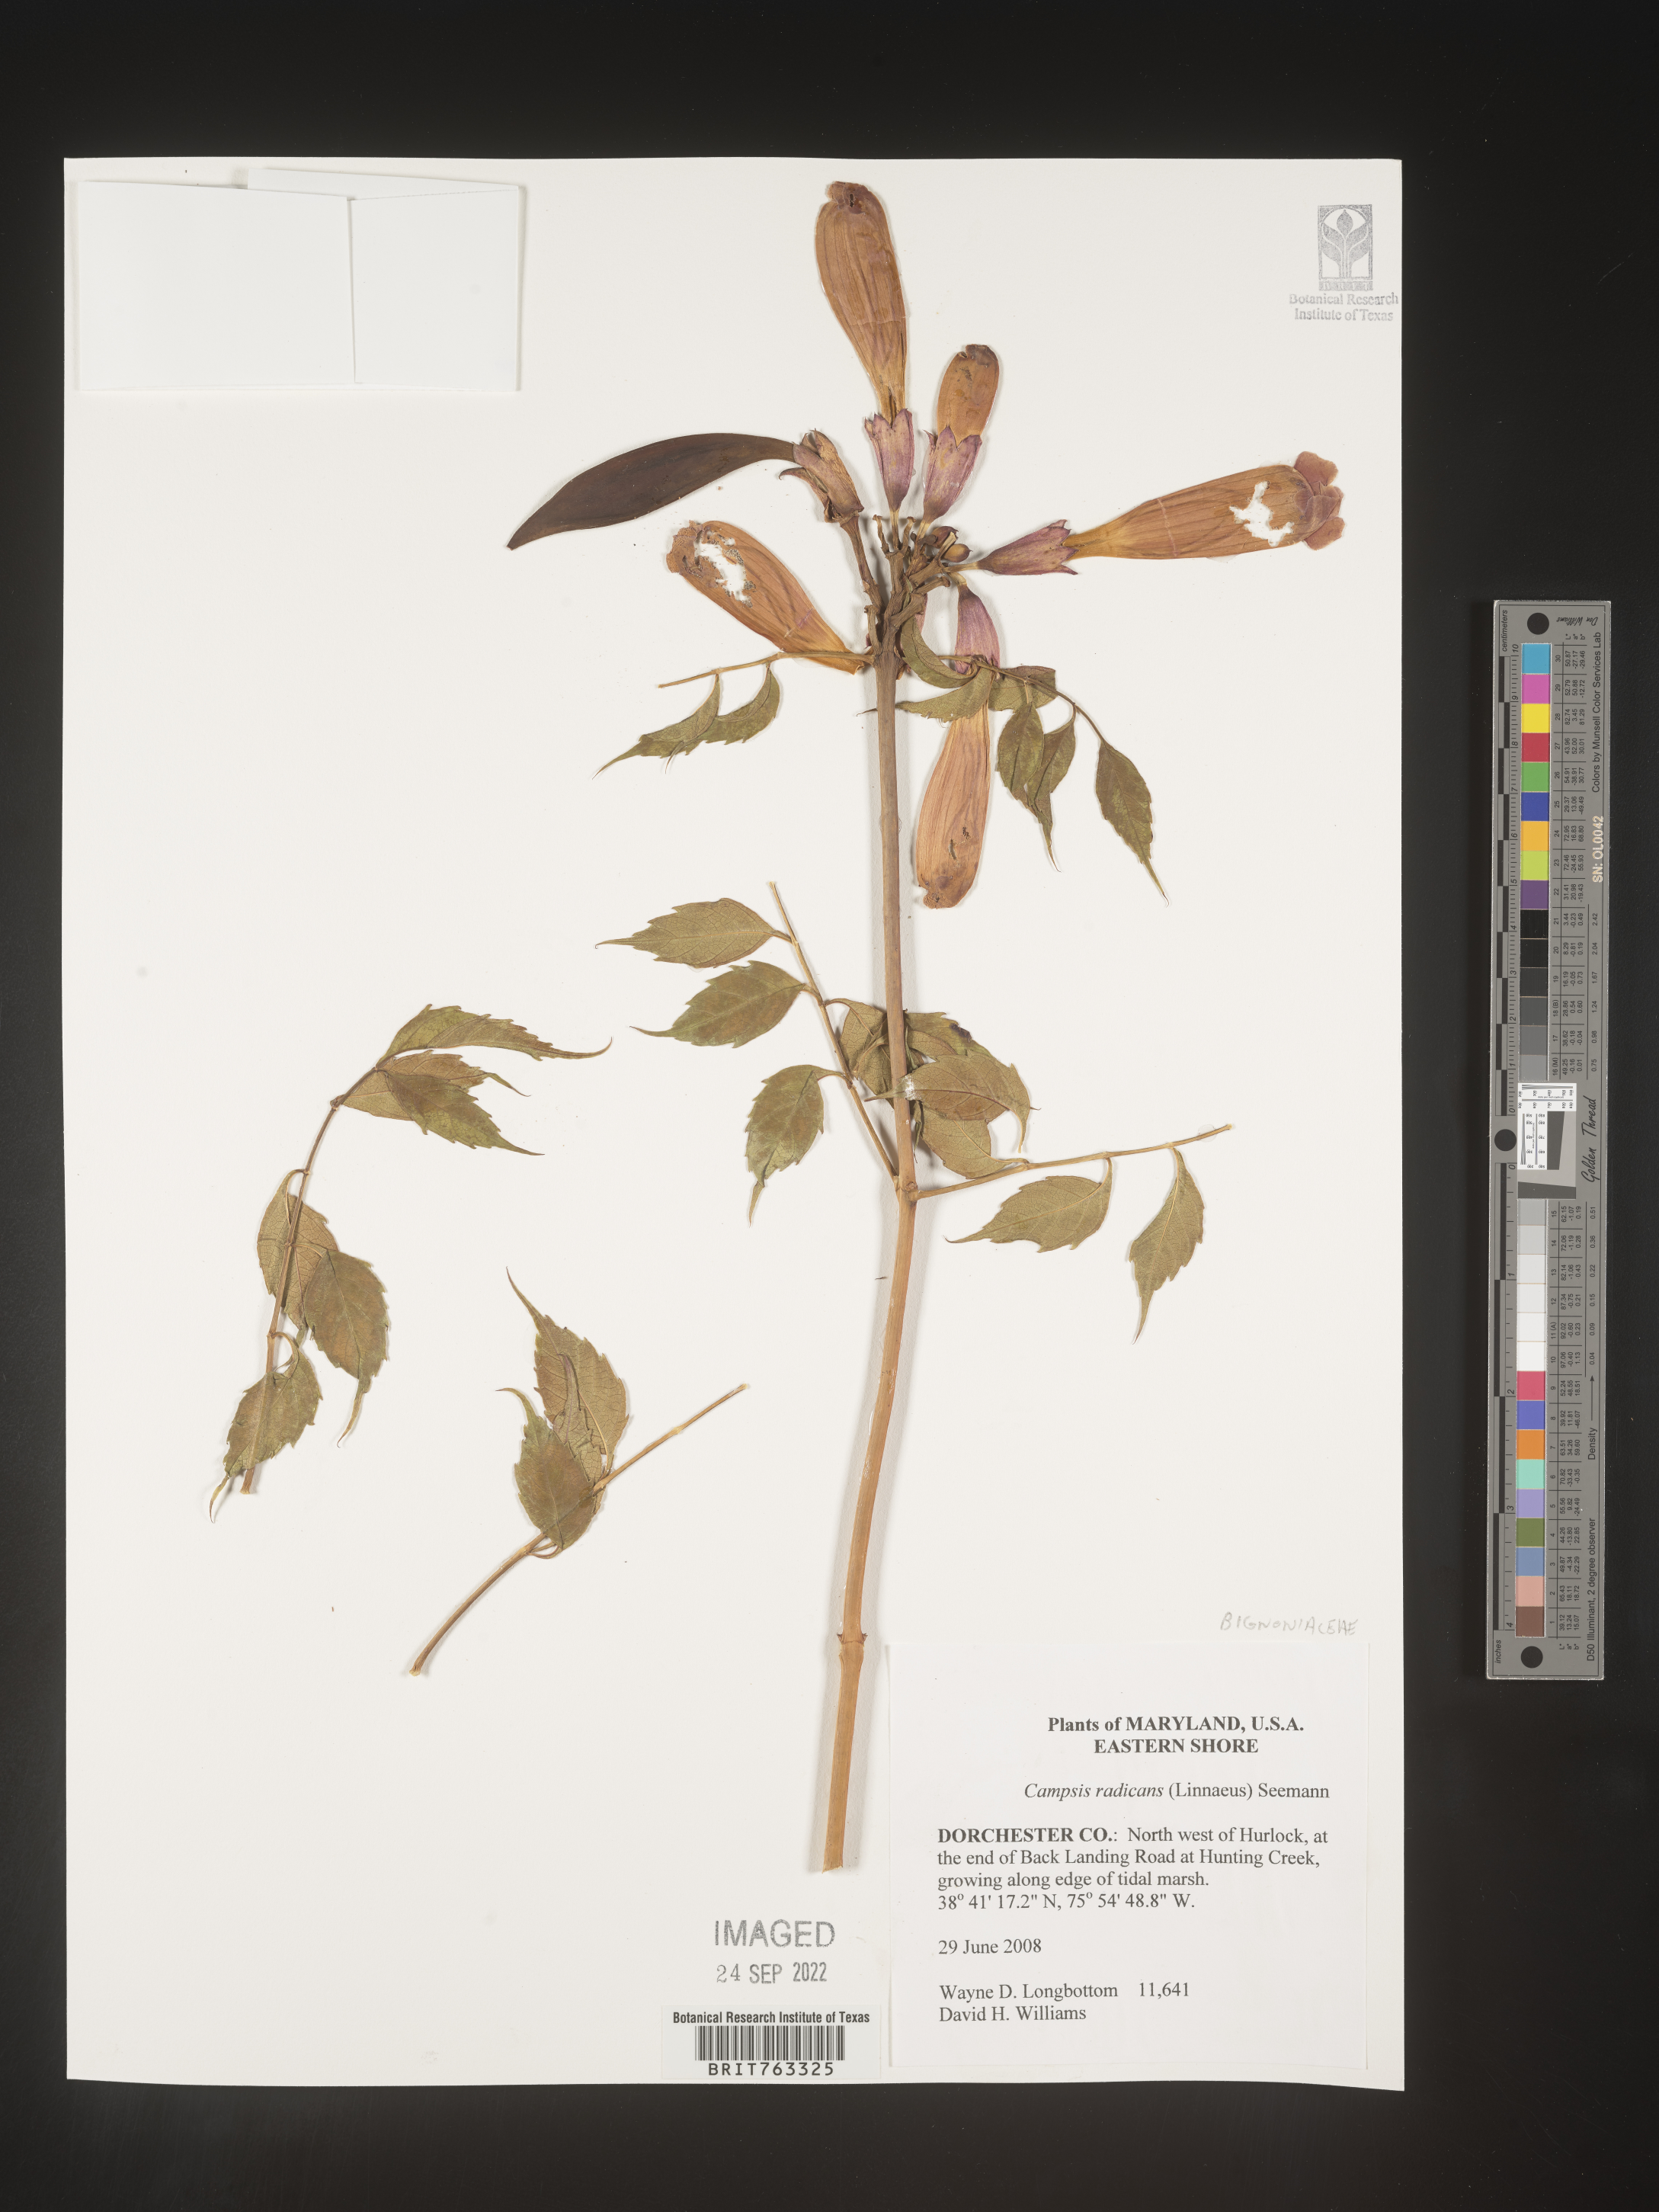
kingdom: Plantae
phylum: Tracheophyta
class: Magnoliopsida
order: Lamiales
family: Bignoniaceae
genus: Campsis
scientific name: Campsis radicans
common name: Trumpet-creeper
